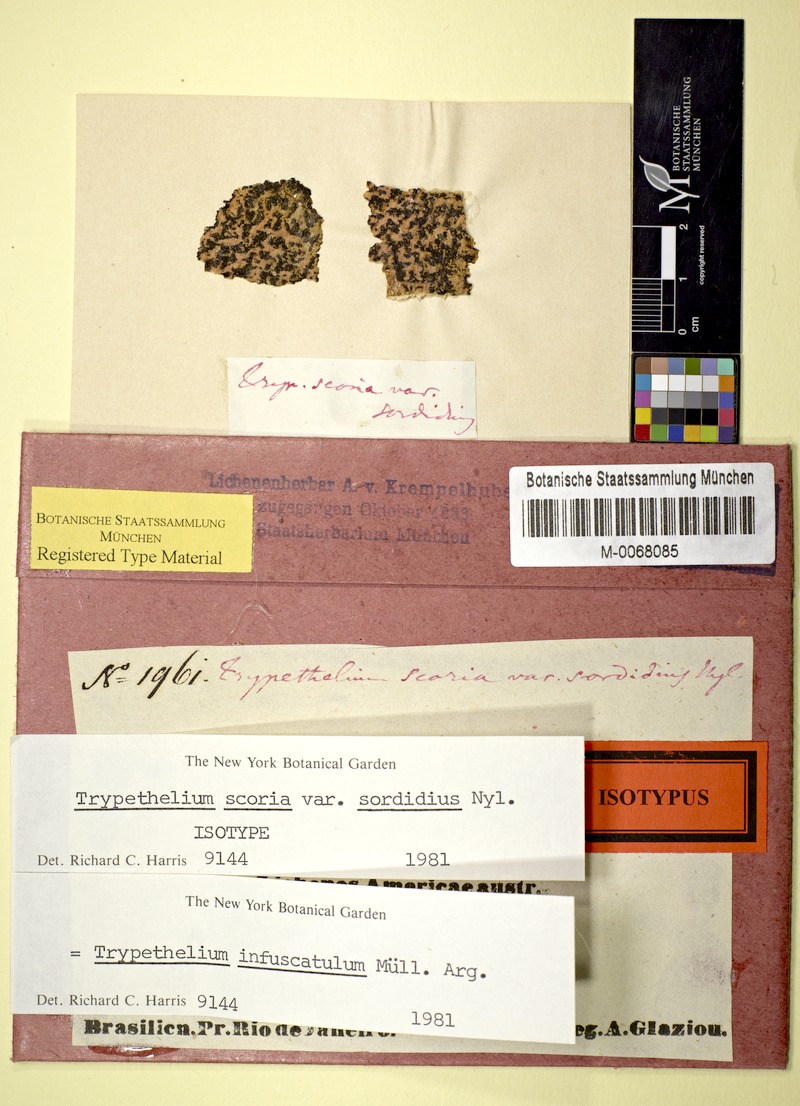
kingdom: Fungi
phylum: Ascomycota
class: Dothideomycetes
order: Trypetheliales
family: Trypetheliaceae
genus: Astrothelium
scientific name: Astrothelium infuscatulum
